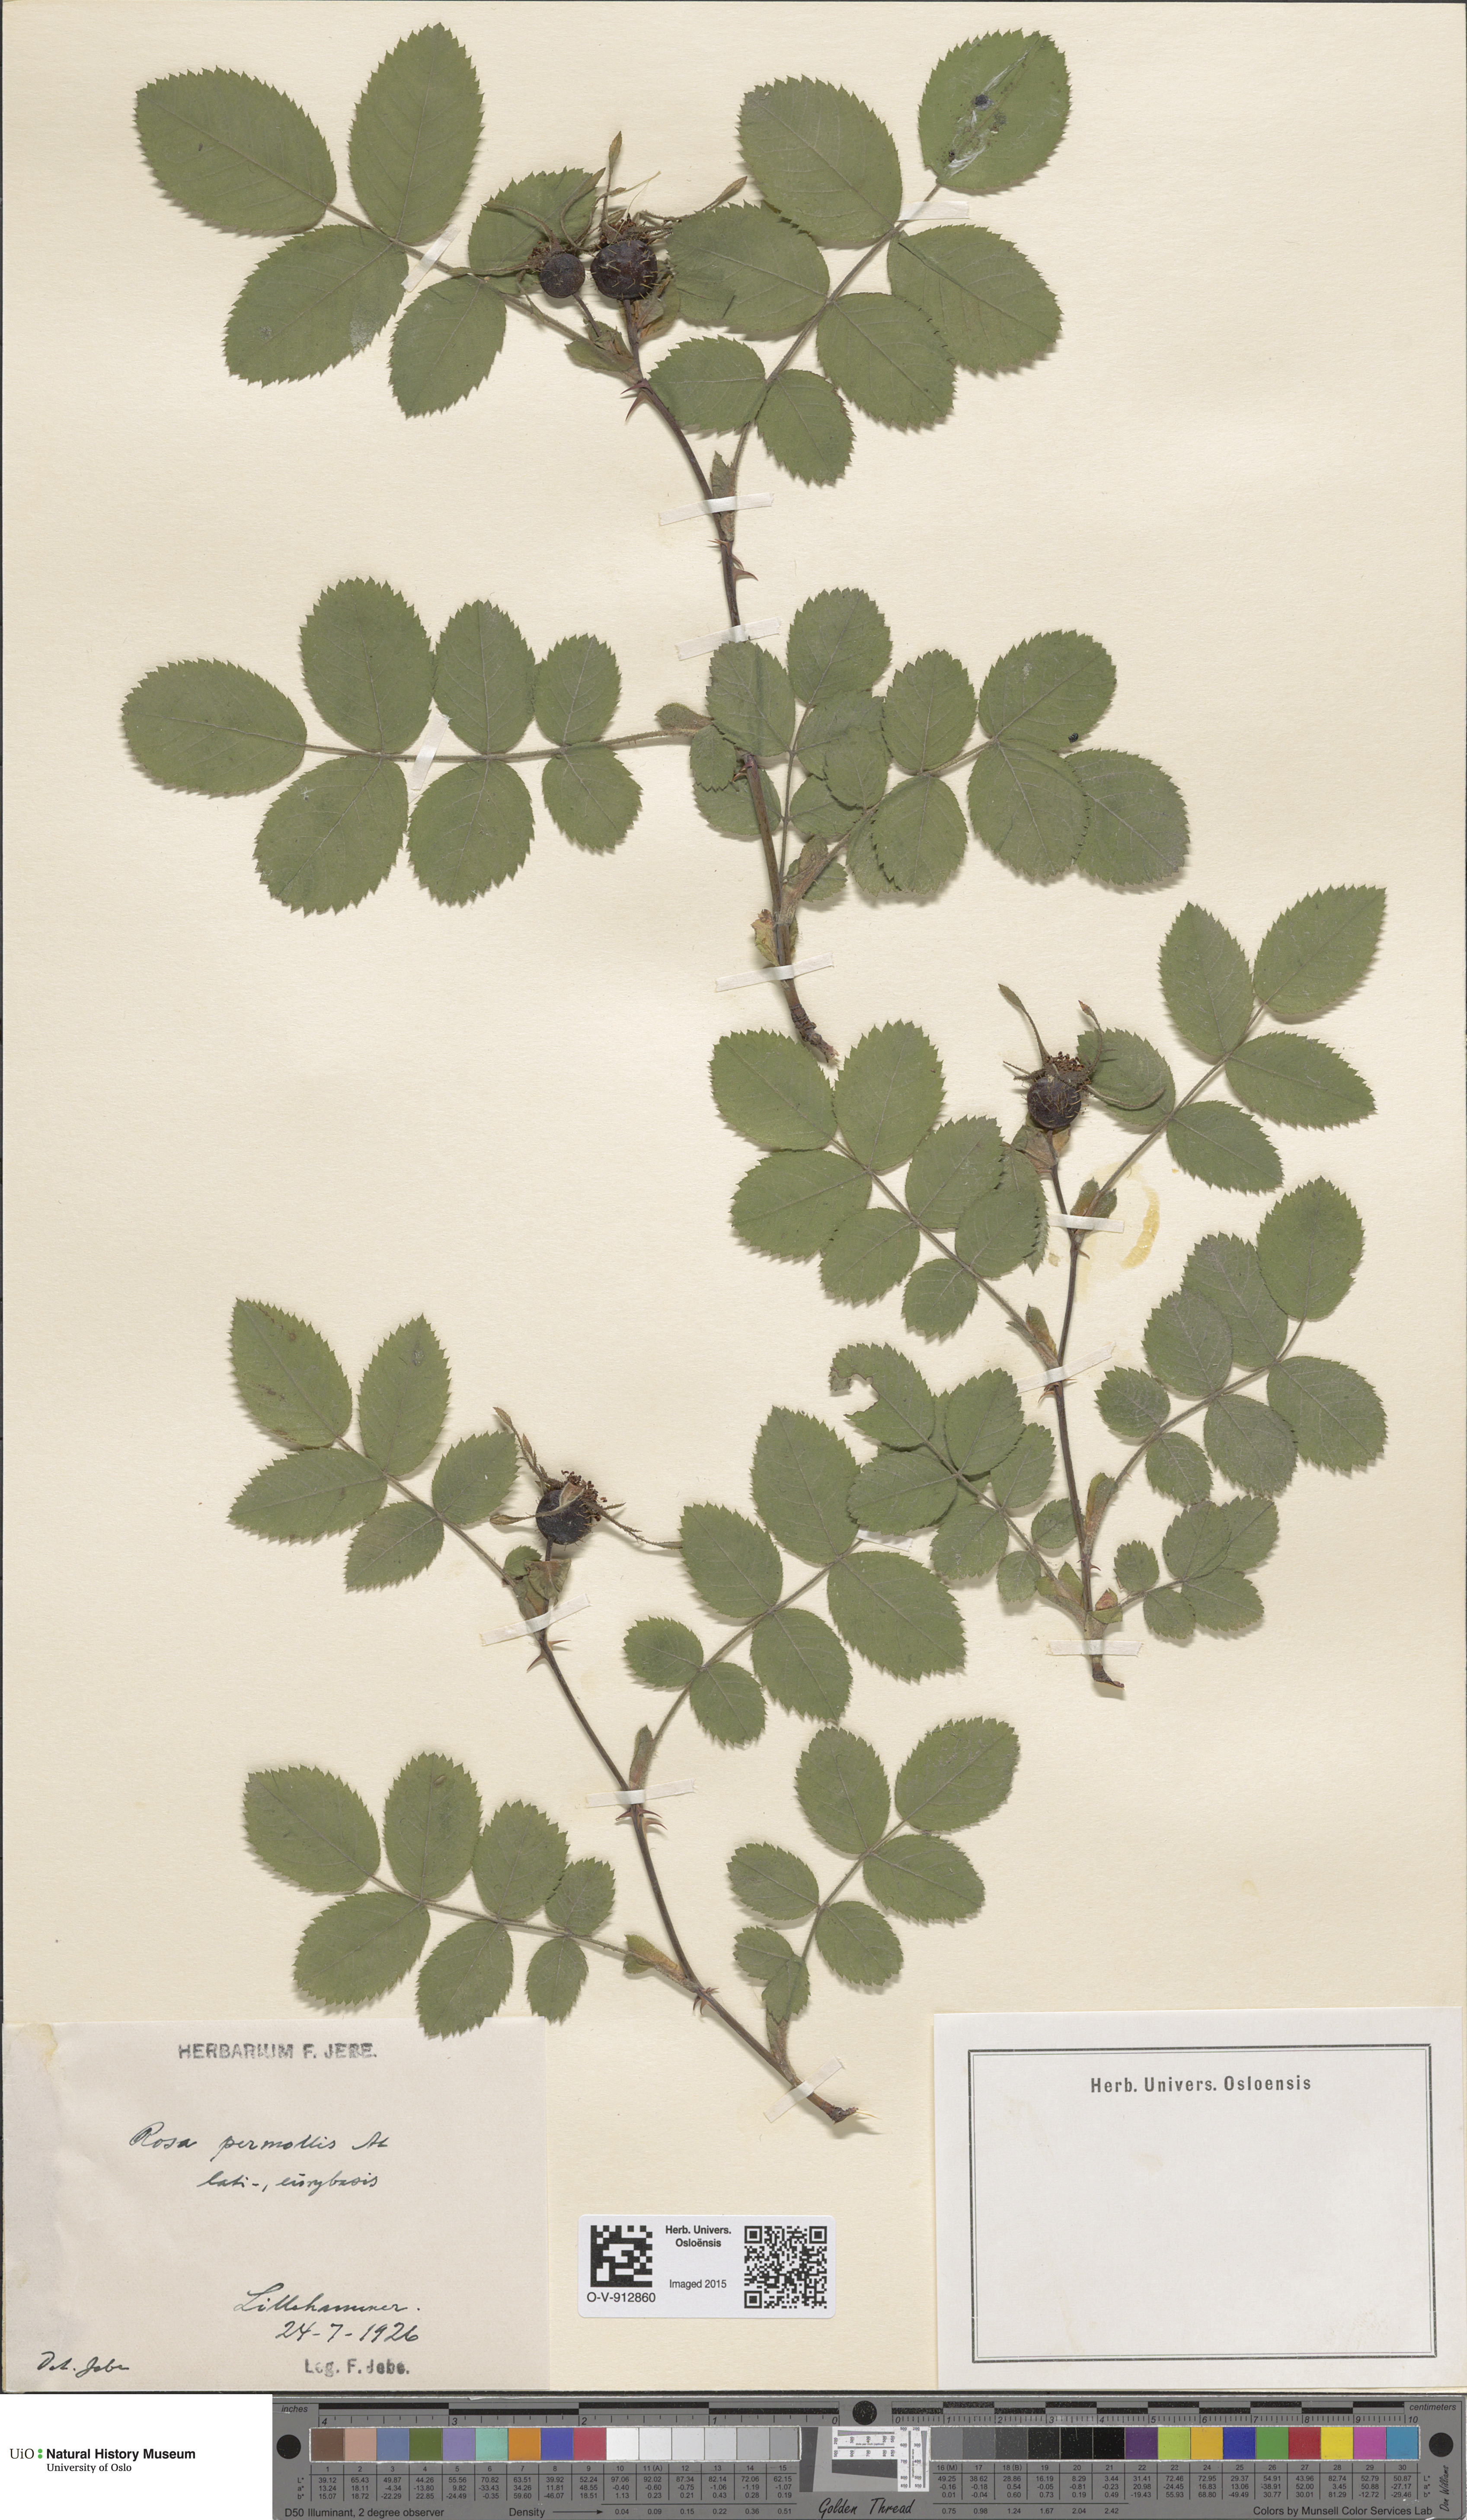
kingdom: Plantae
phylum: Tracheophyta
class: Magnoliopsida
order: Rosales
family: Rosaceae
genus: Rosa
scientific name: Rosa mollis
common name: Rose
